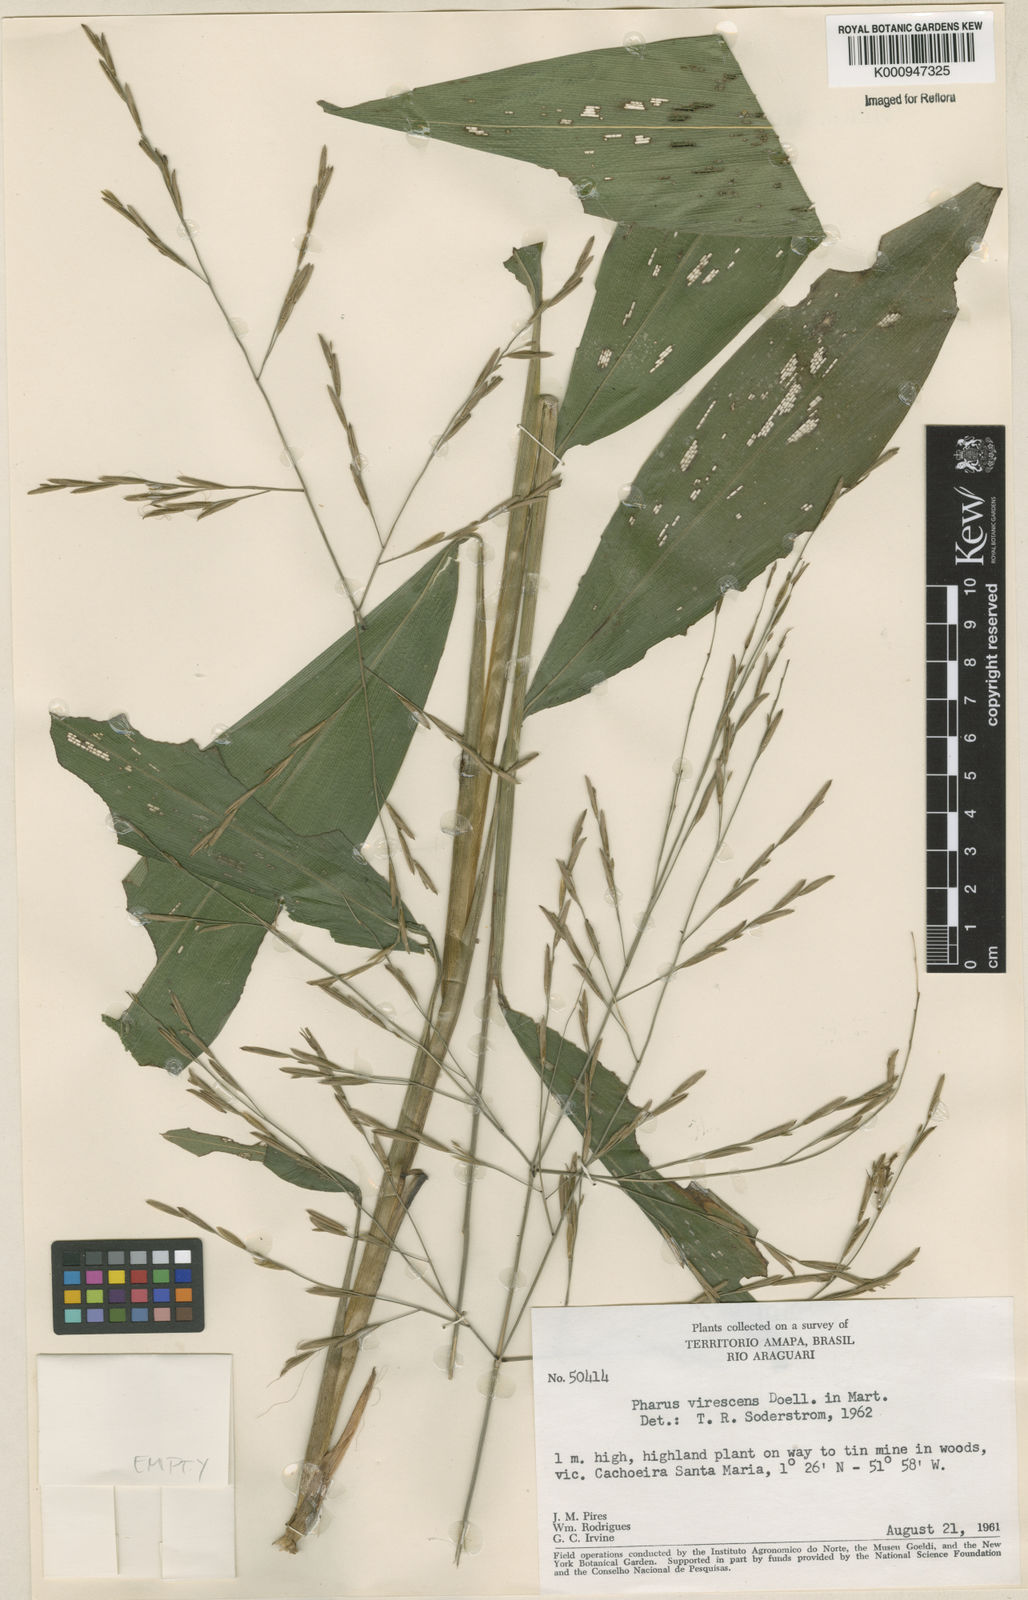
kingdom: Plantae
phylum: Tracheophyta
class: Liliopsida
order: Poales
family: Poaceae
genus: Pharus
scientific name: Pharus
